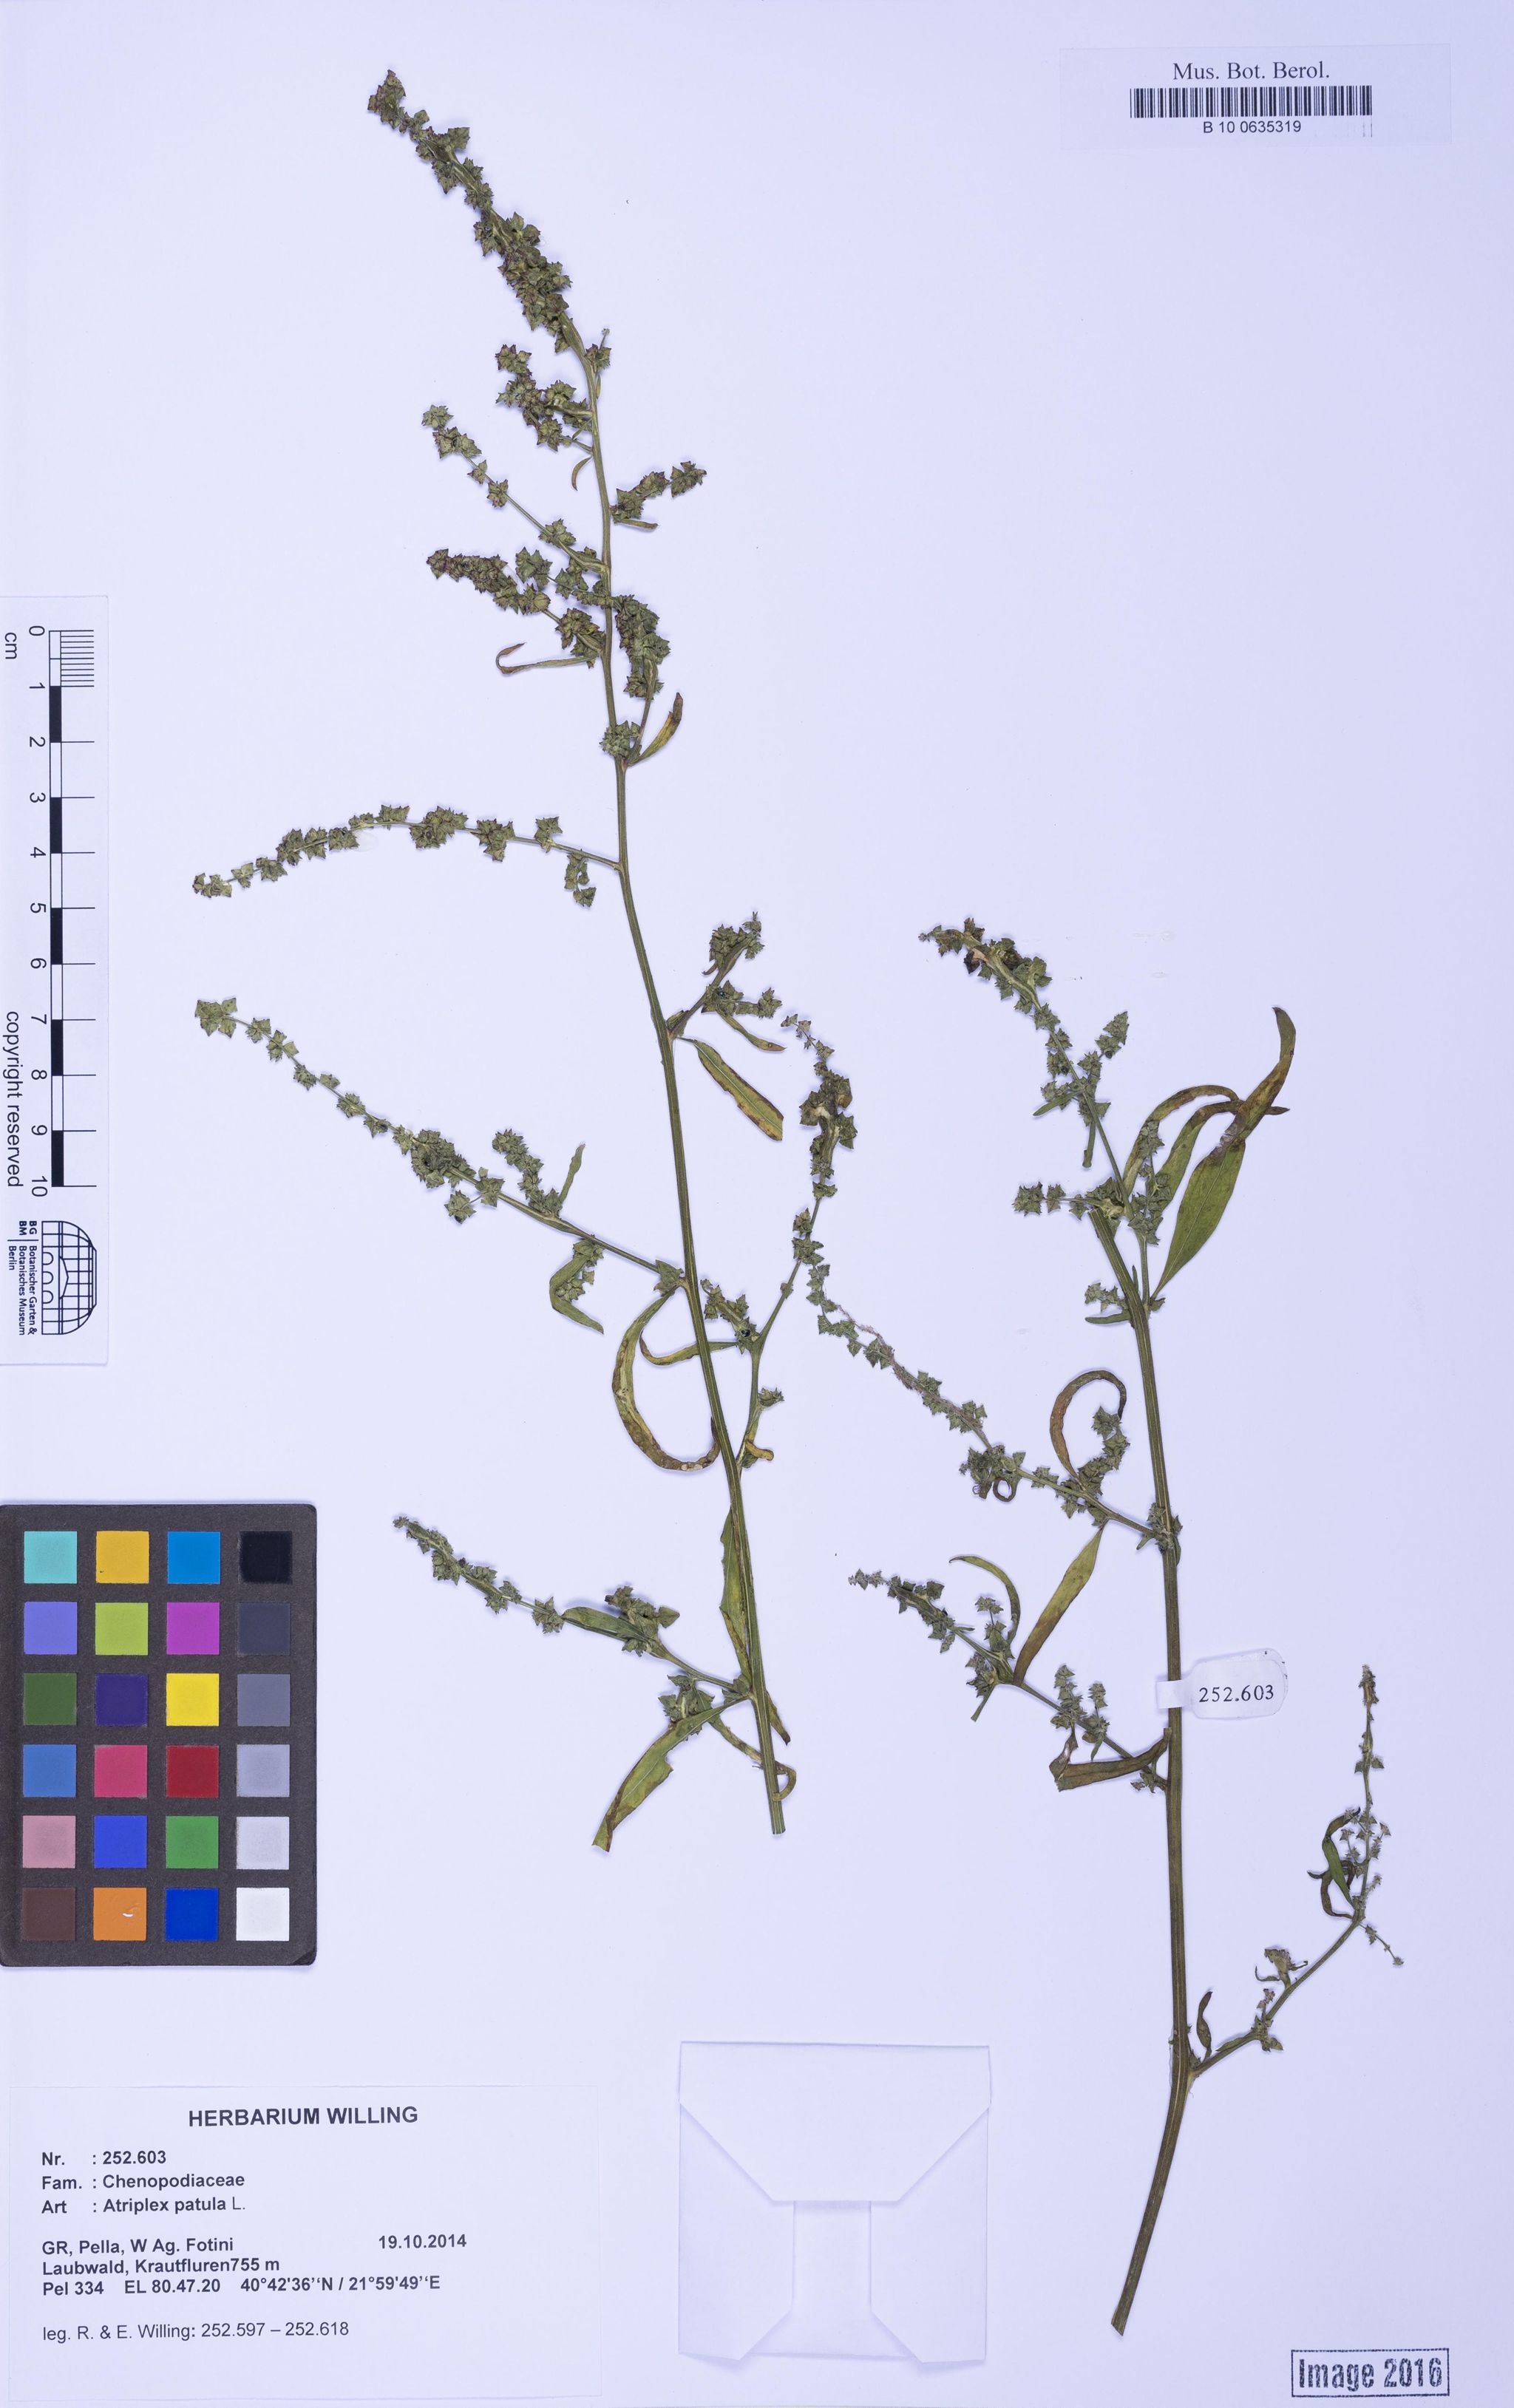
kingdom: Plantae
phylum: Tracheophyta
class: Magnoliopsida
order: Caryophyllales
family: Amaranthaceae
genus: Atriplex
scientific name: Atriplex patula
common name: Common orache
